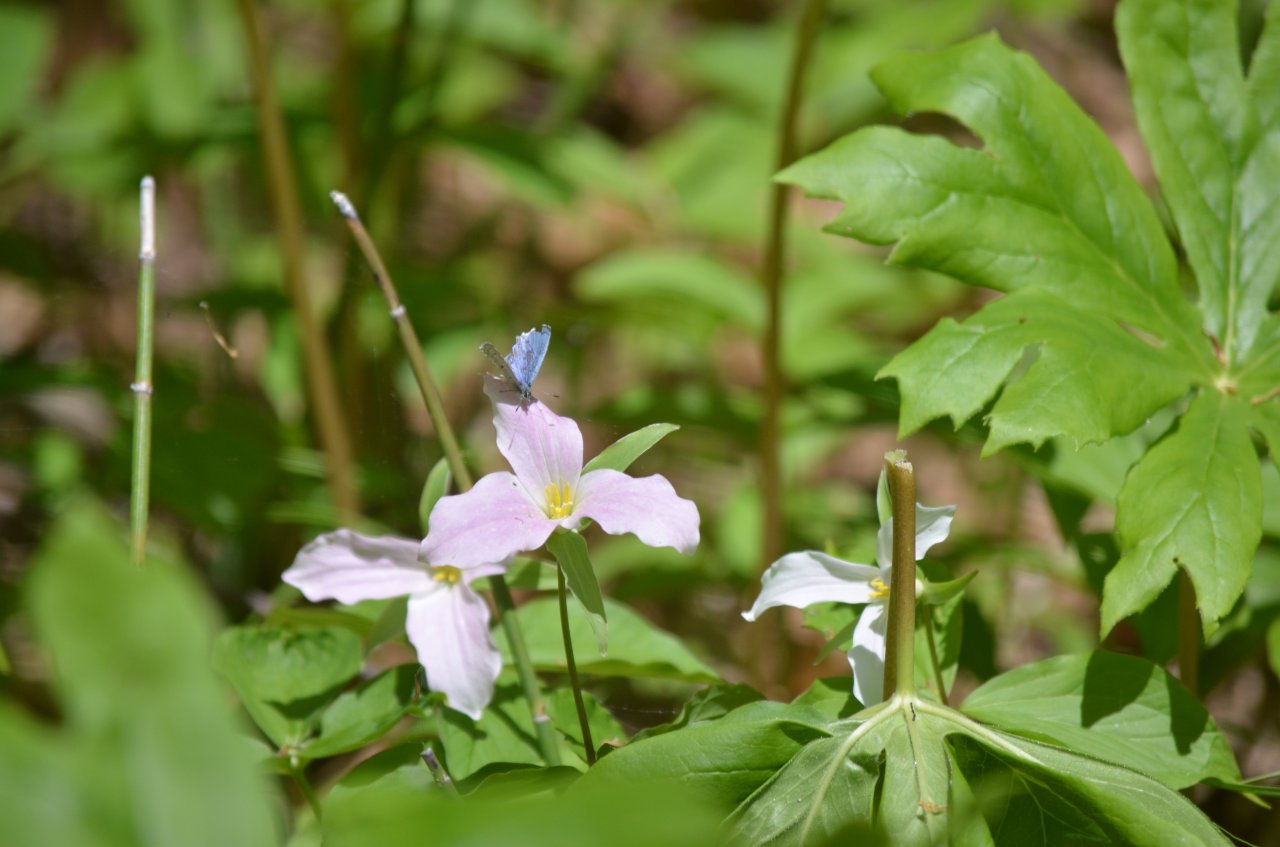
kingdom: Animalia
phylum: Arthropoda
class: Insecta
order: Lepidoptera
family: Lycaenidae
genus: Celastrina
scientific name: Celastrina
